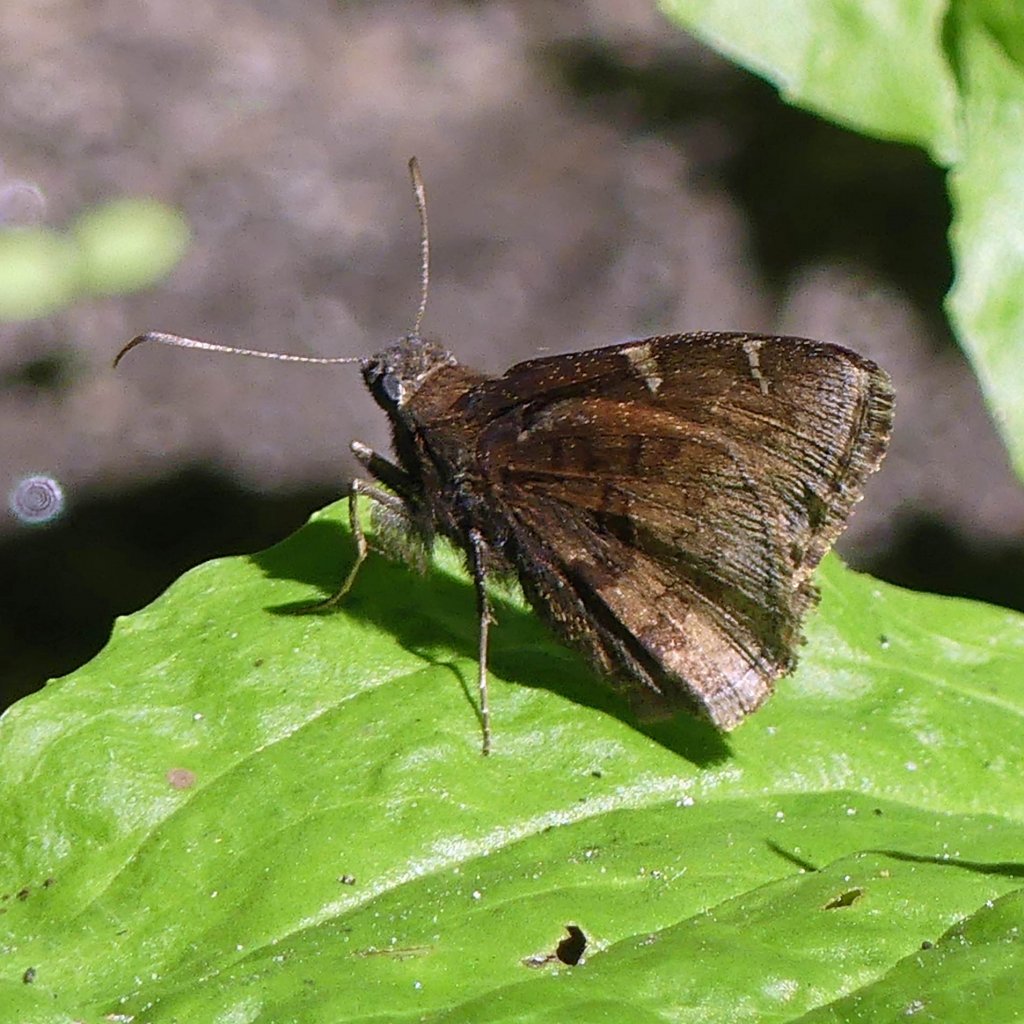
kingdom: Animalia
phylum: Arthropoda
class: Insecta
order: Lepidoptera
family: Hesperiidae
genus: Autochton
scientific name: Autochton
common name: Northern Cloudywing
